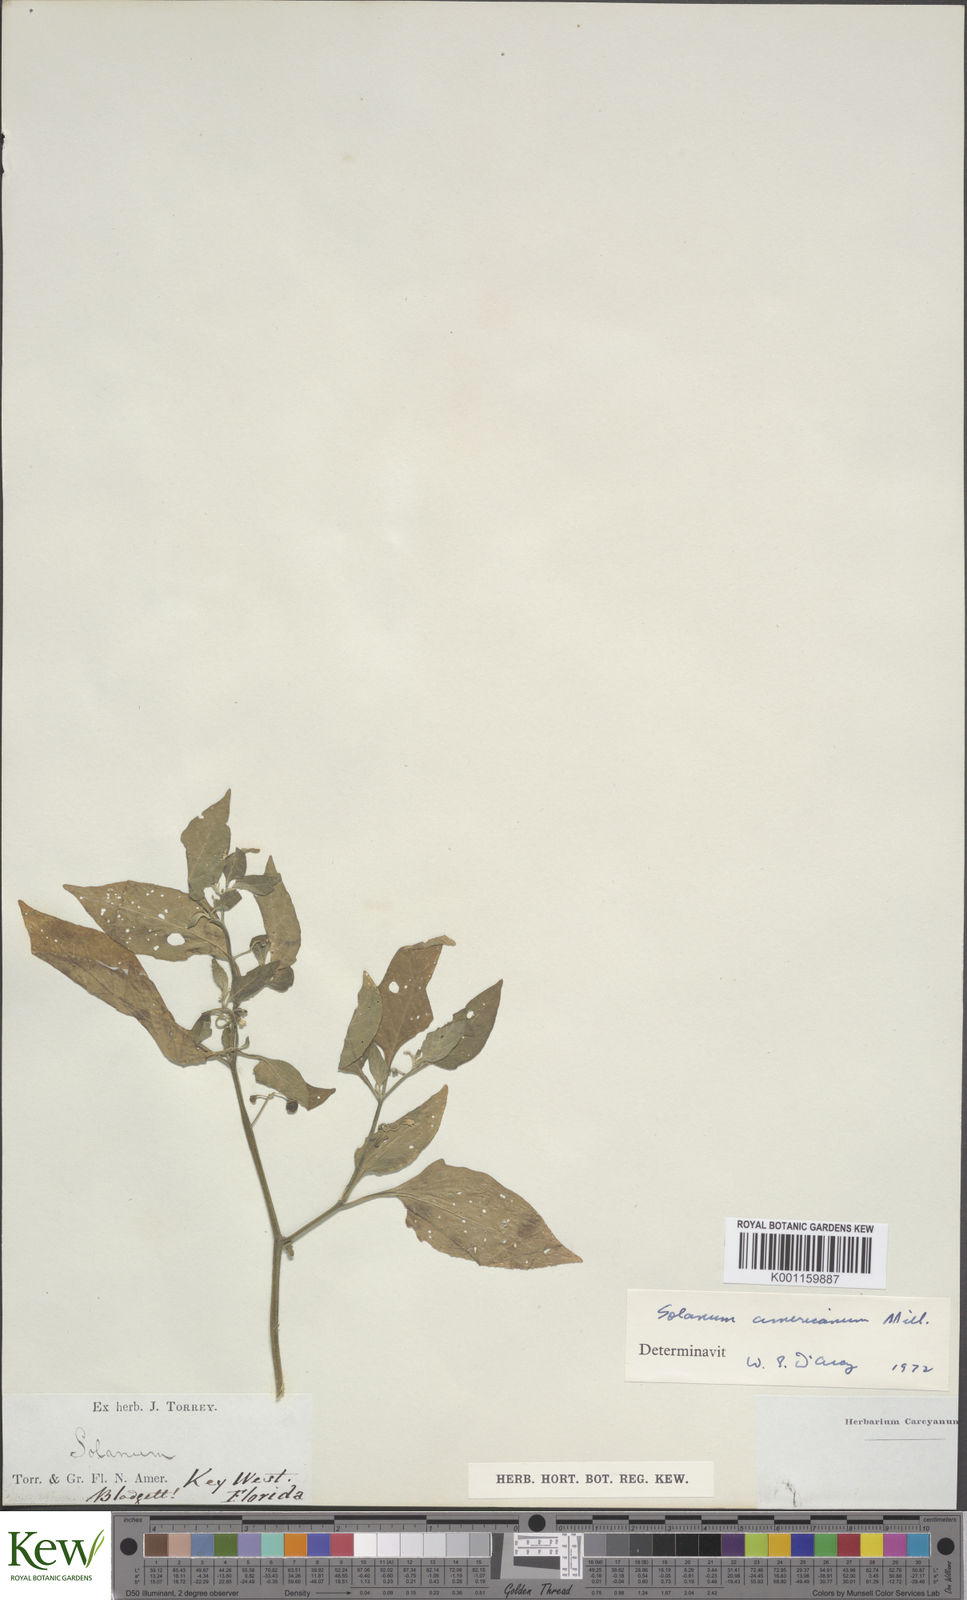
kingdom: Plantae
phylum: Tracheophyta
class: Magnoliopsida
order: Solanales
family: Solanaceae
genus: Solanum
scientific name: Solanum americanum
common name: American black nightshade
